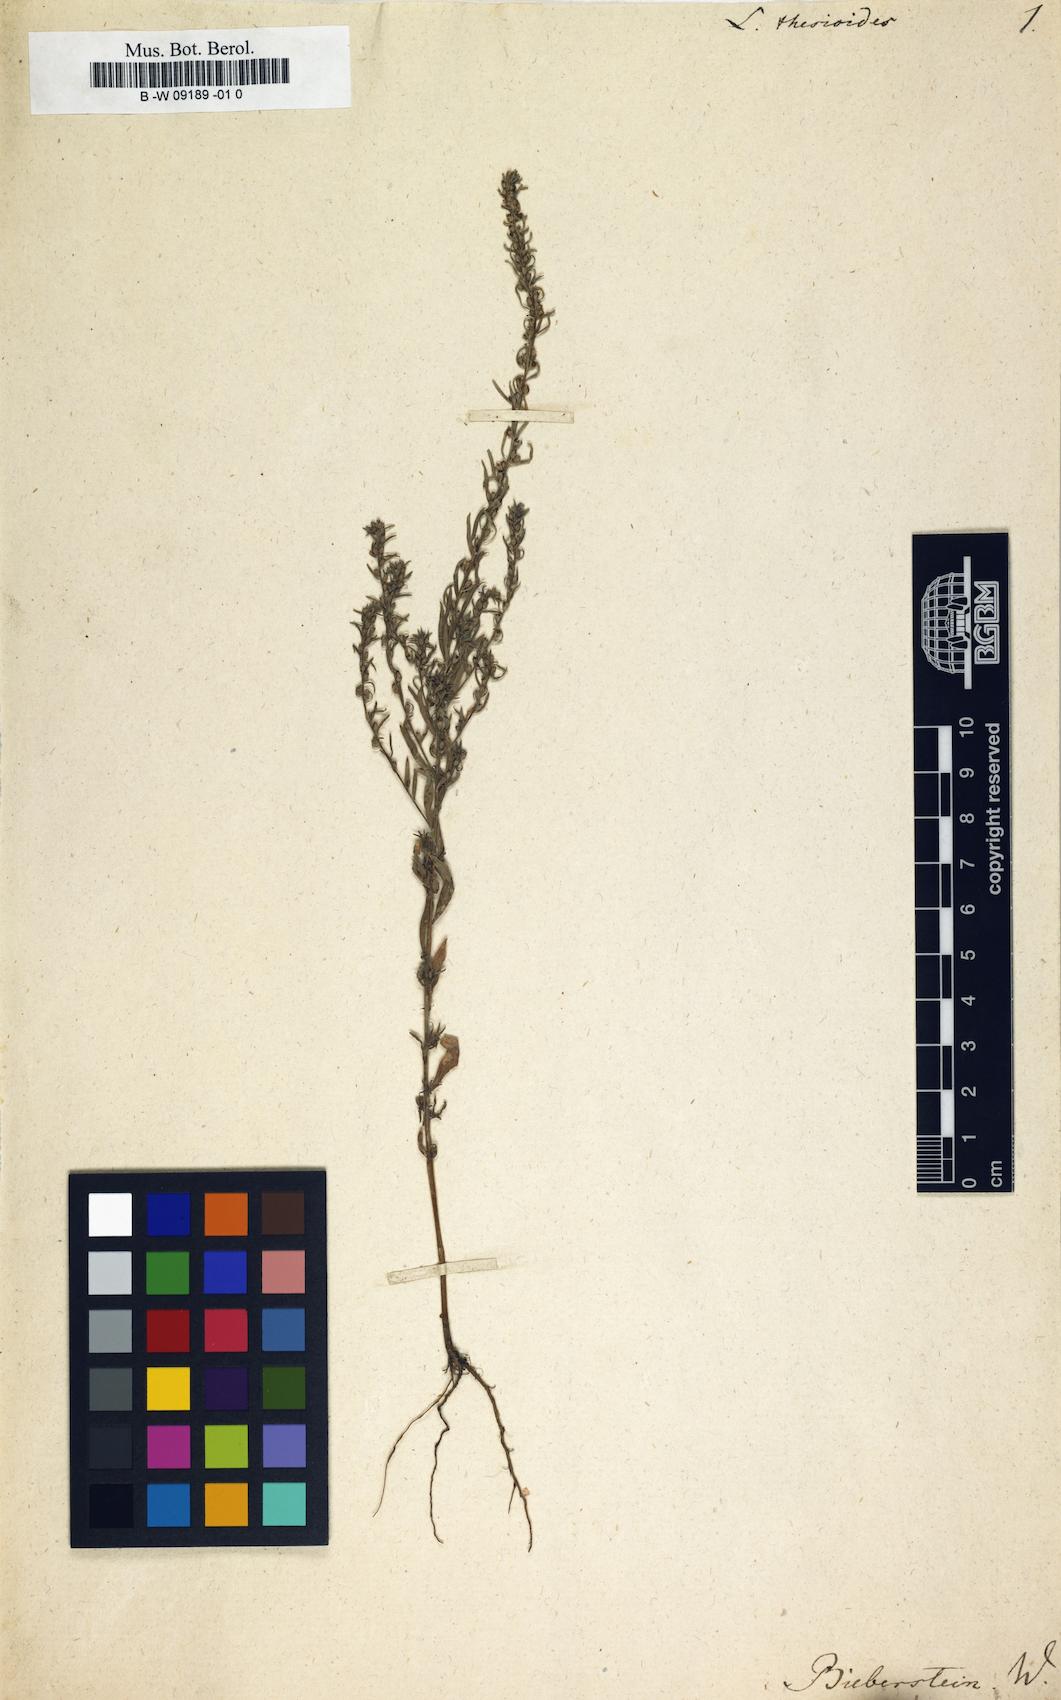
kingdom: Plantae
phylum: Tracheophyta
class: Magnoliopsida
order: Myrtales
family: Lythraceae
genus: Lythrum
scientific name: Lythrum thesioides
